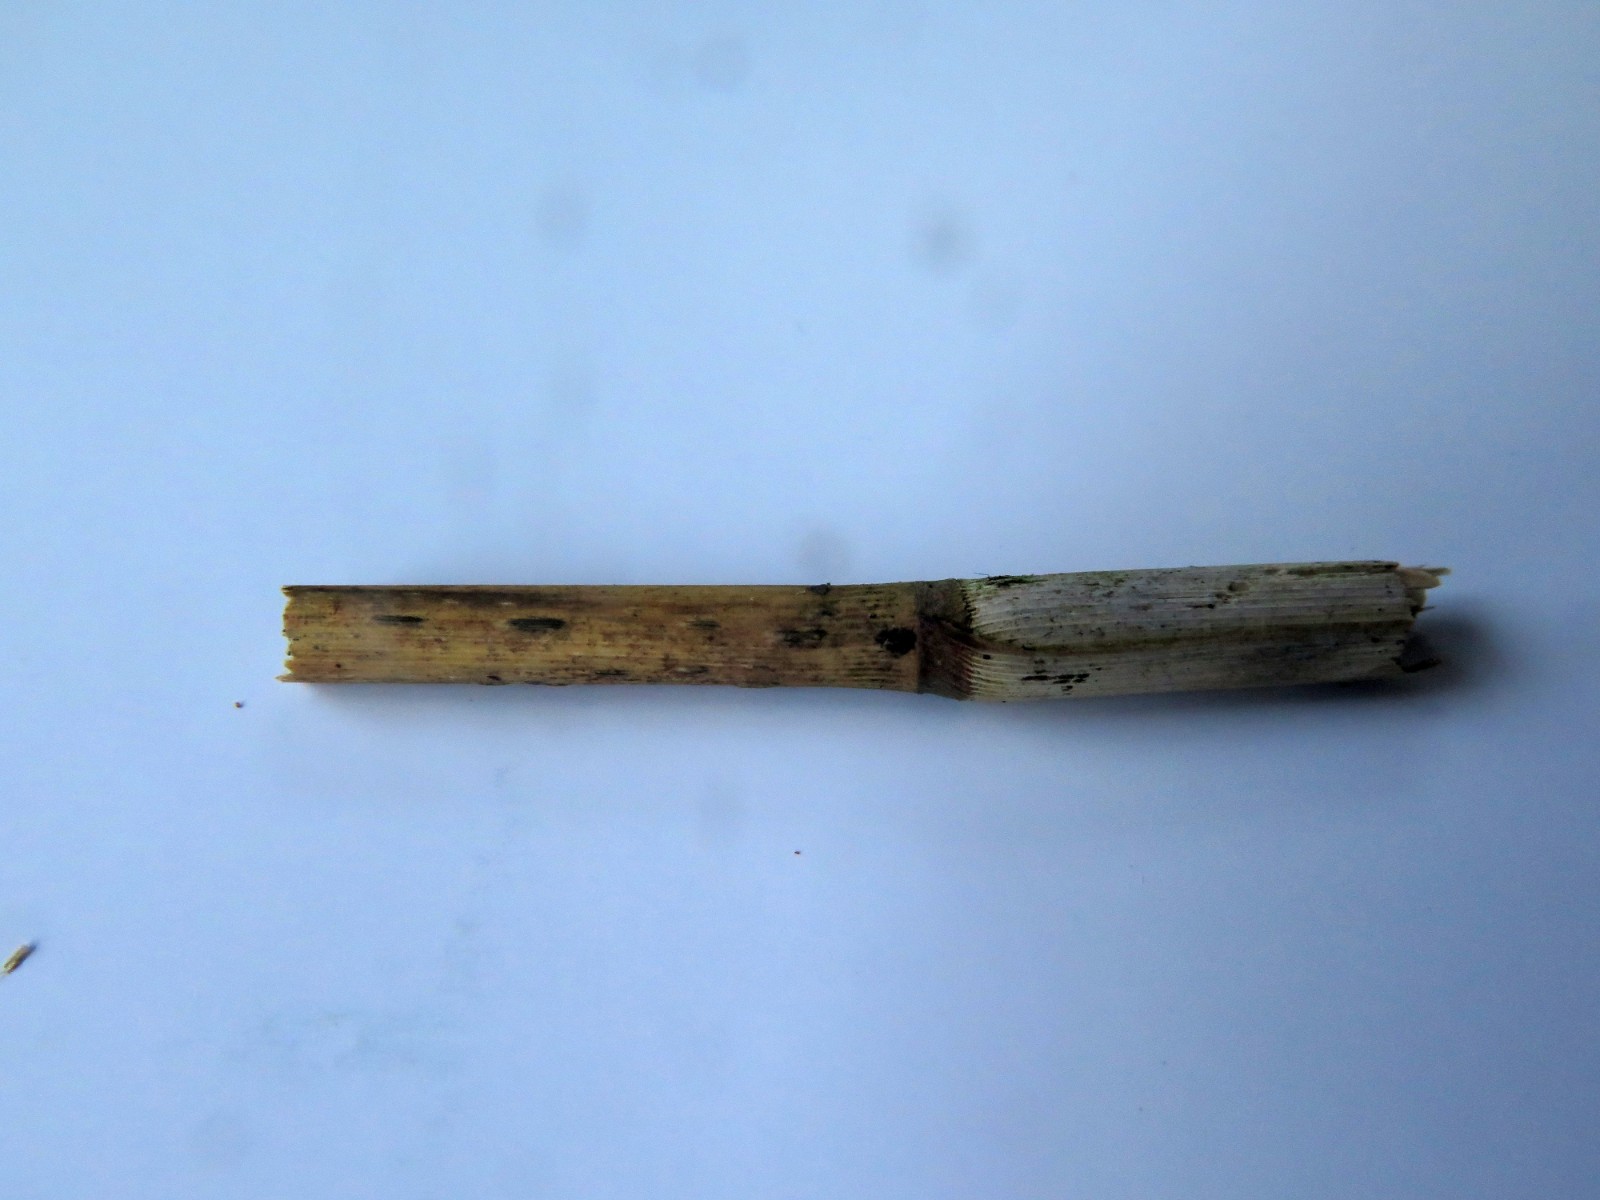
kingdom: Fungi
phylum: Ascomycota
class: Dothideomycetes
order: Pleosporales
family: Lentitheciaceae
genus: Setoseptoria
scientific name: Setoseptoria arundinacea
